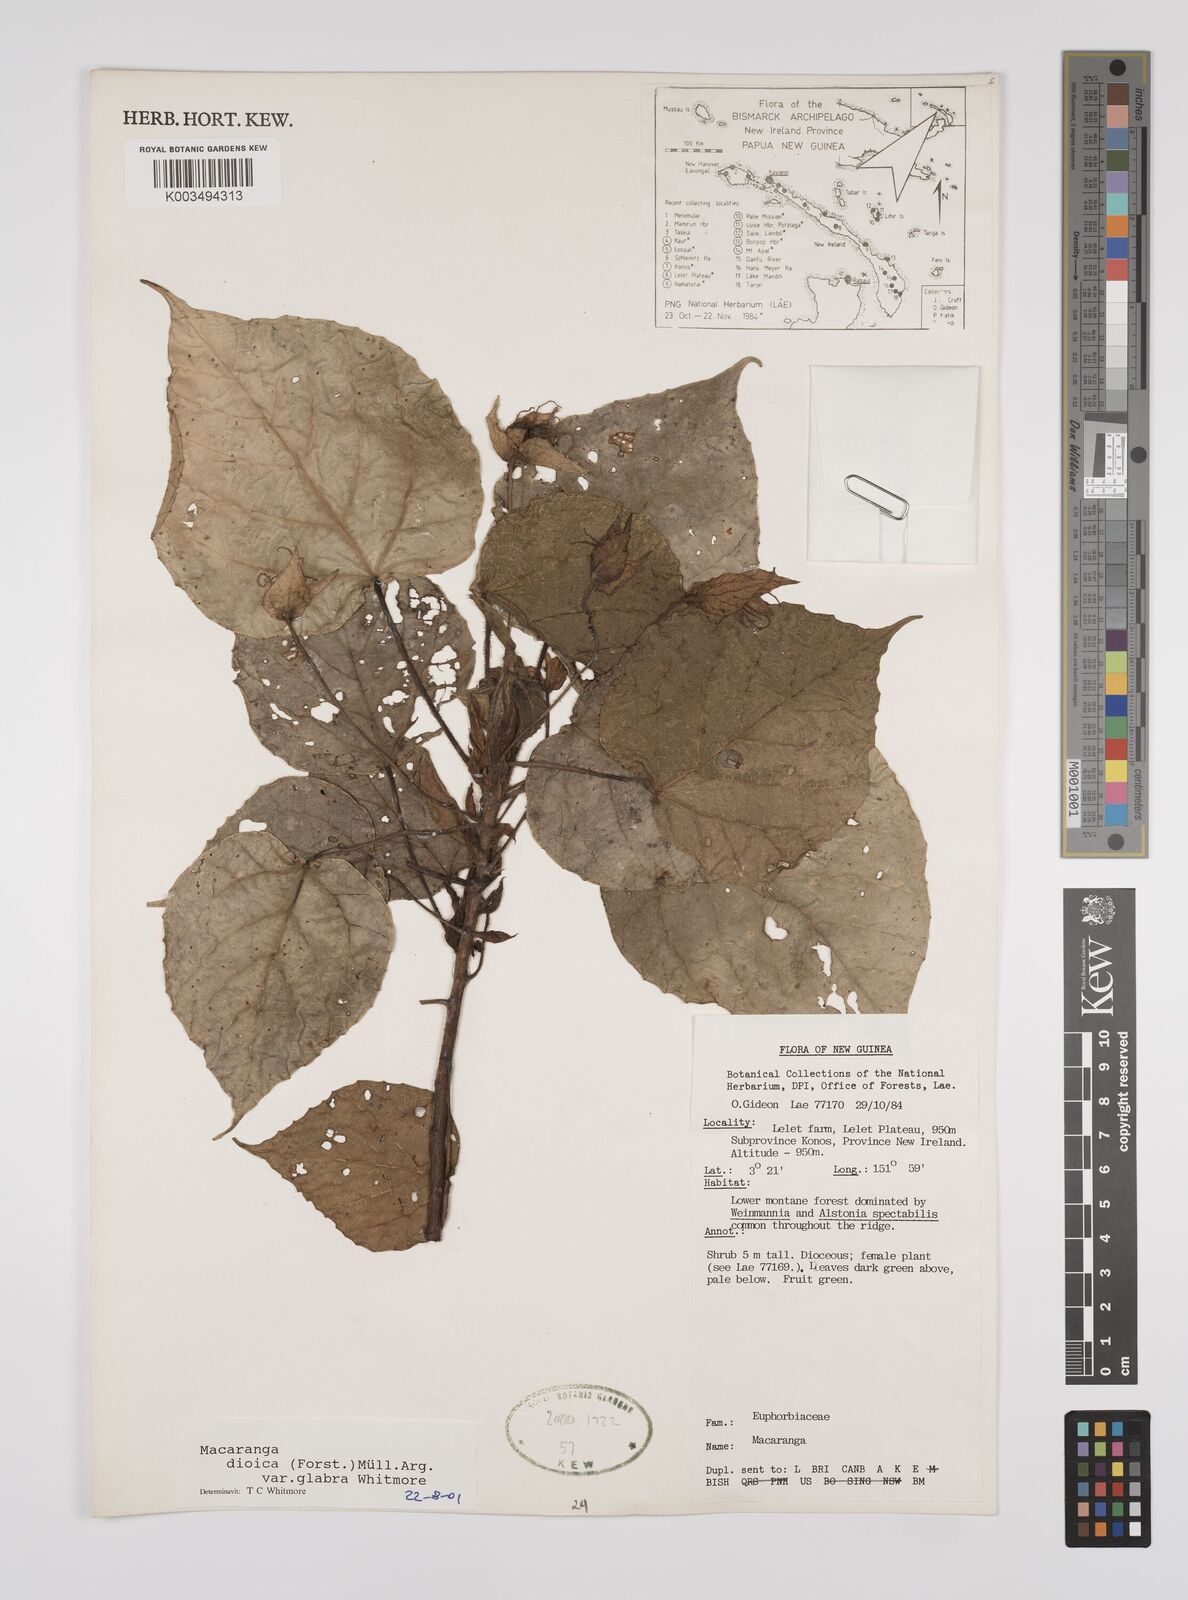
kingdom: Plantae
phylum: Tracheophyta
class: Magnoliopsida
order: Malpighiales
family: Euphorbiaceae
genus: Macaranga
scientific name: Macaranga dioica
